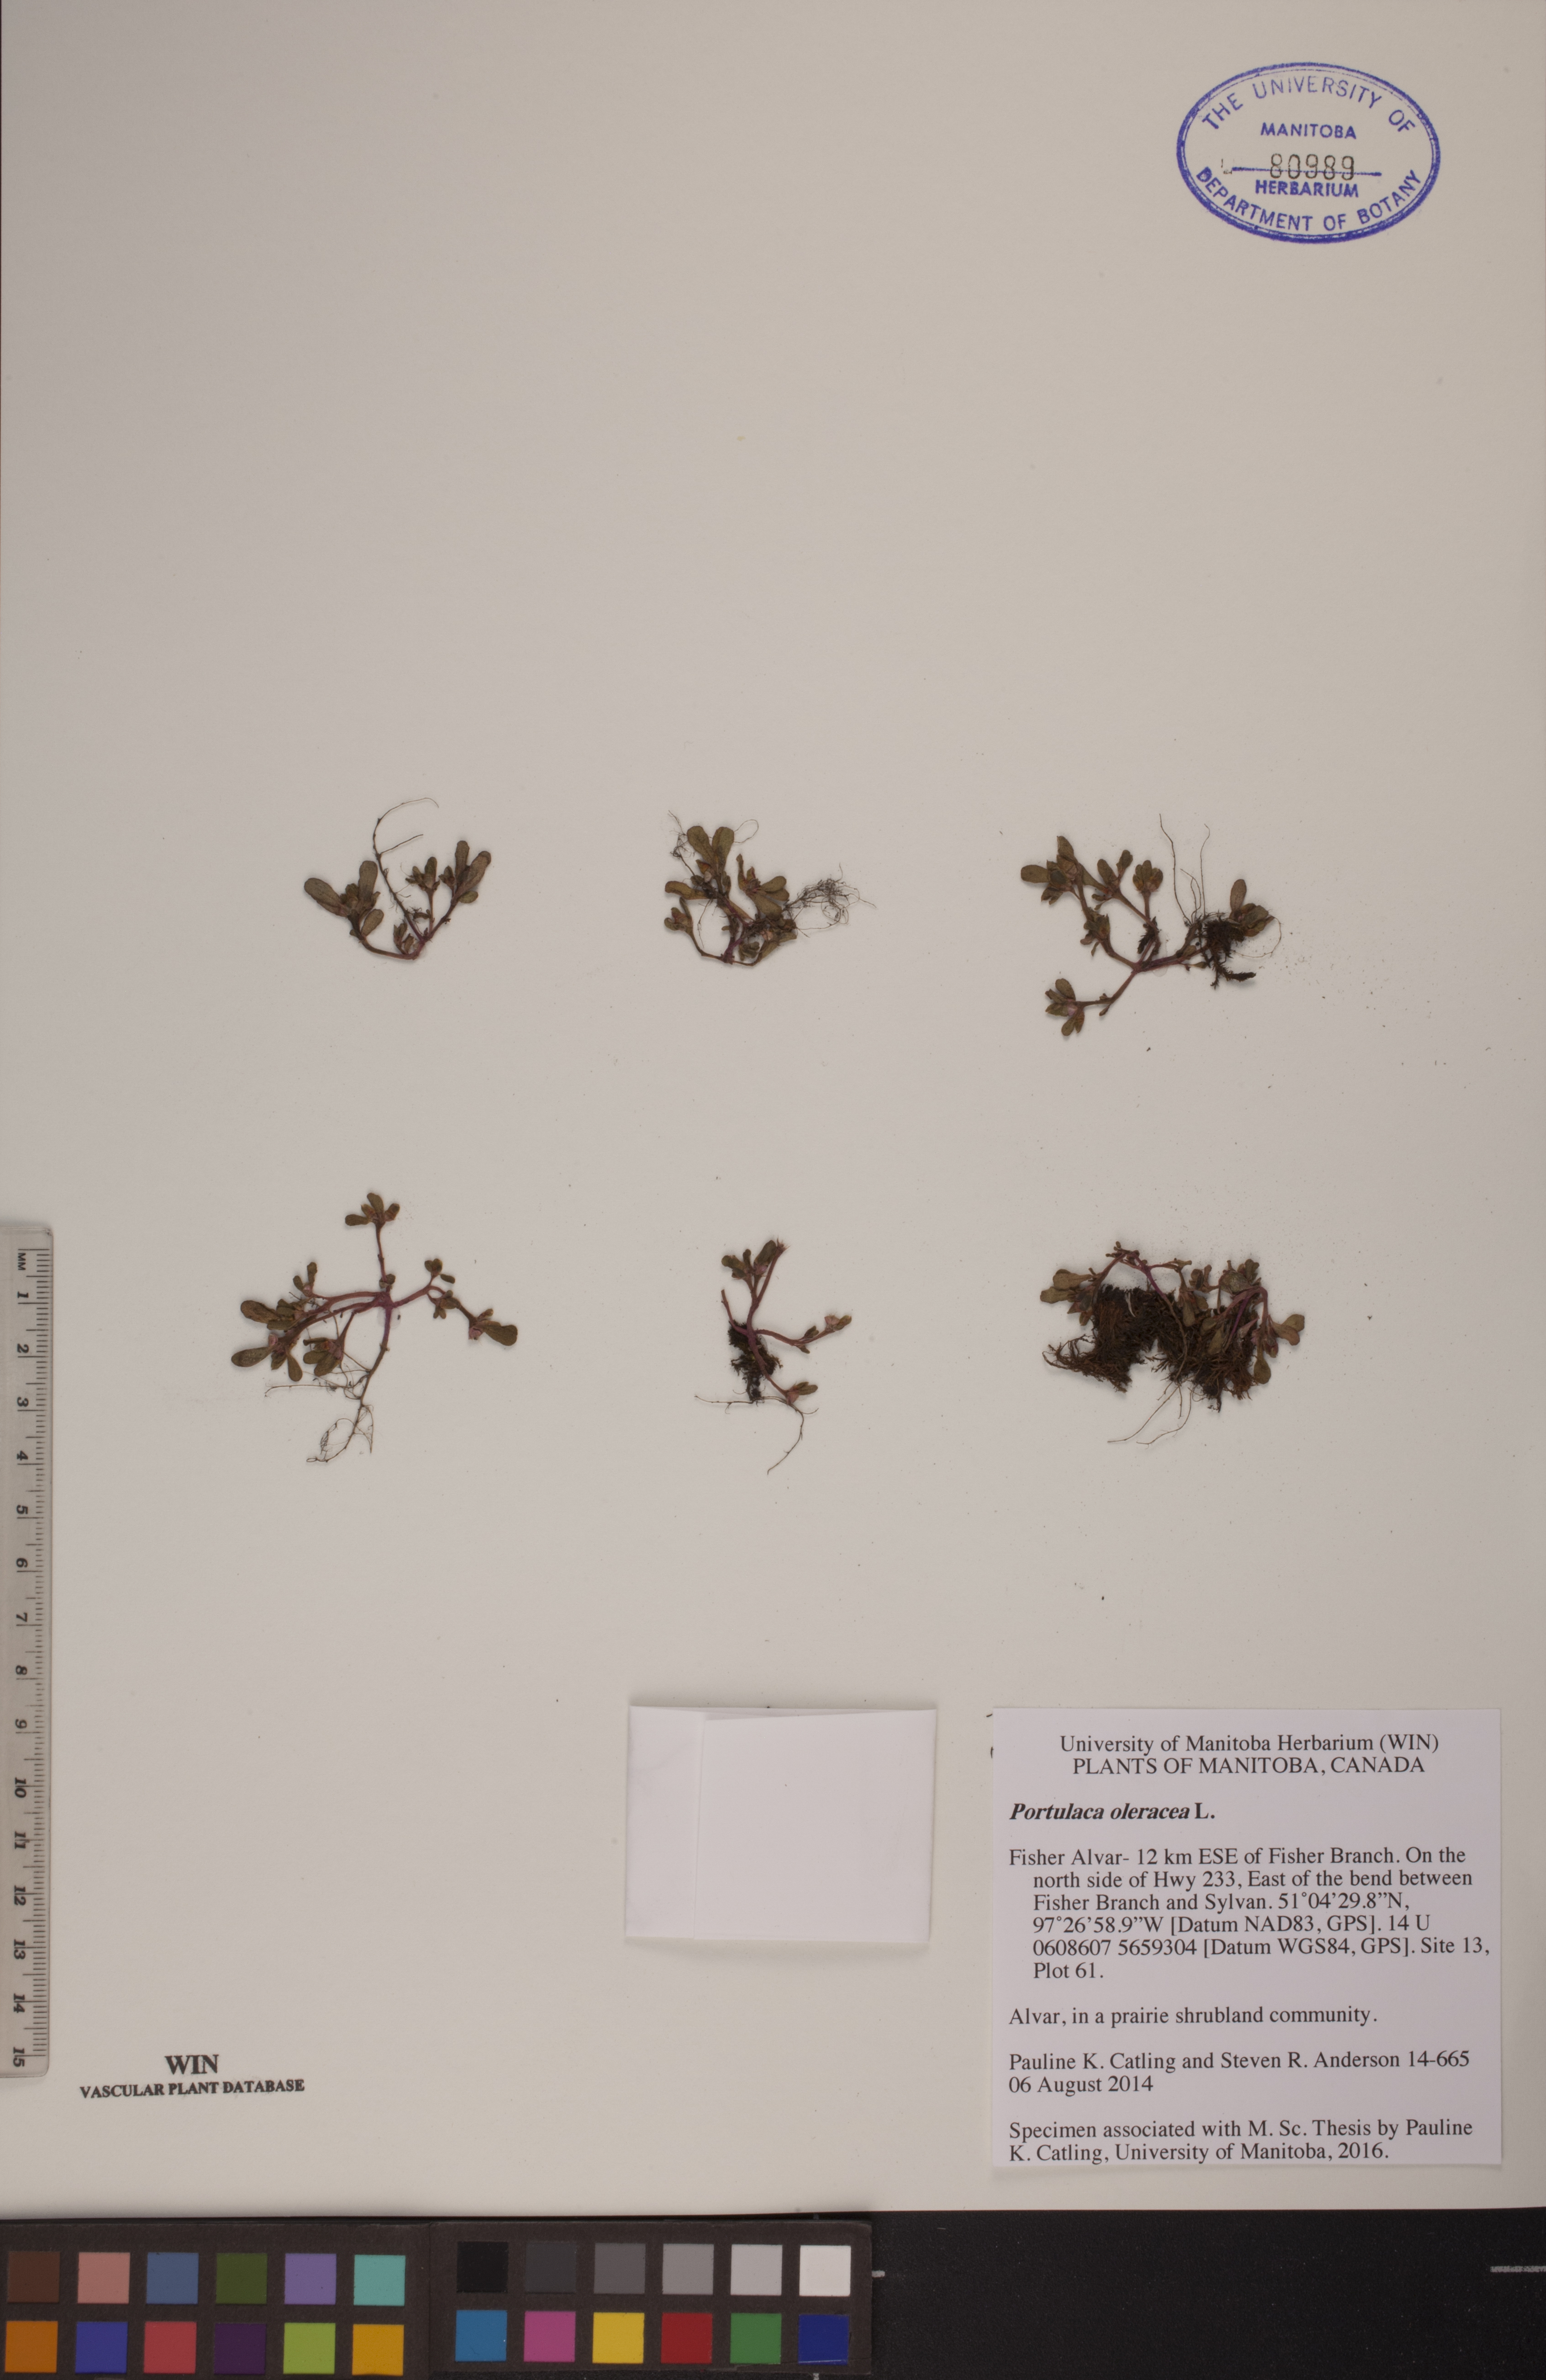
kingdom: Plantae
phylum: Tracheophyta
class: Magnoliopsida
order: Caryophyllales
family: Portulacaceae
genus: Portulaca
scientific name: Portulaca oleracea
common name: Common purslane
